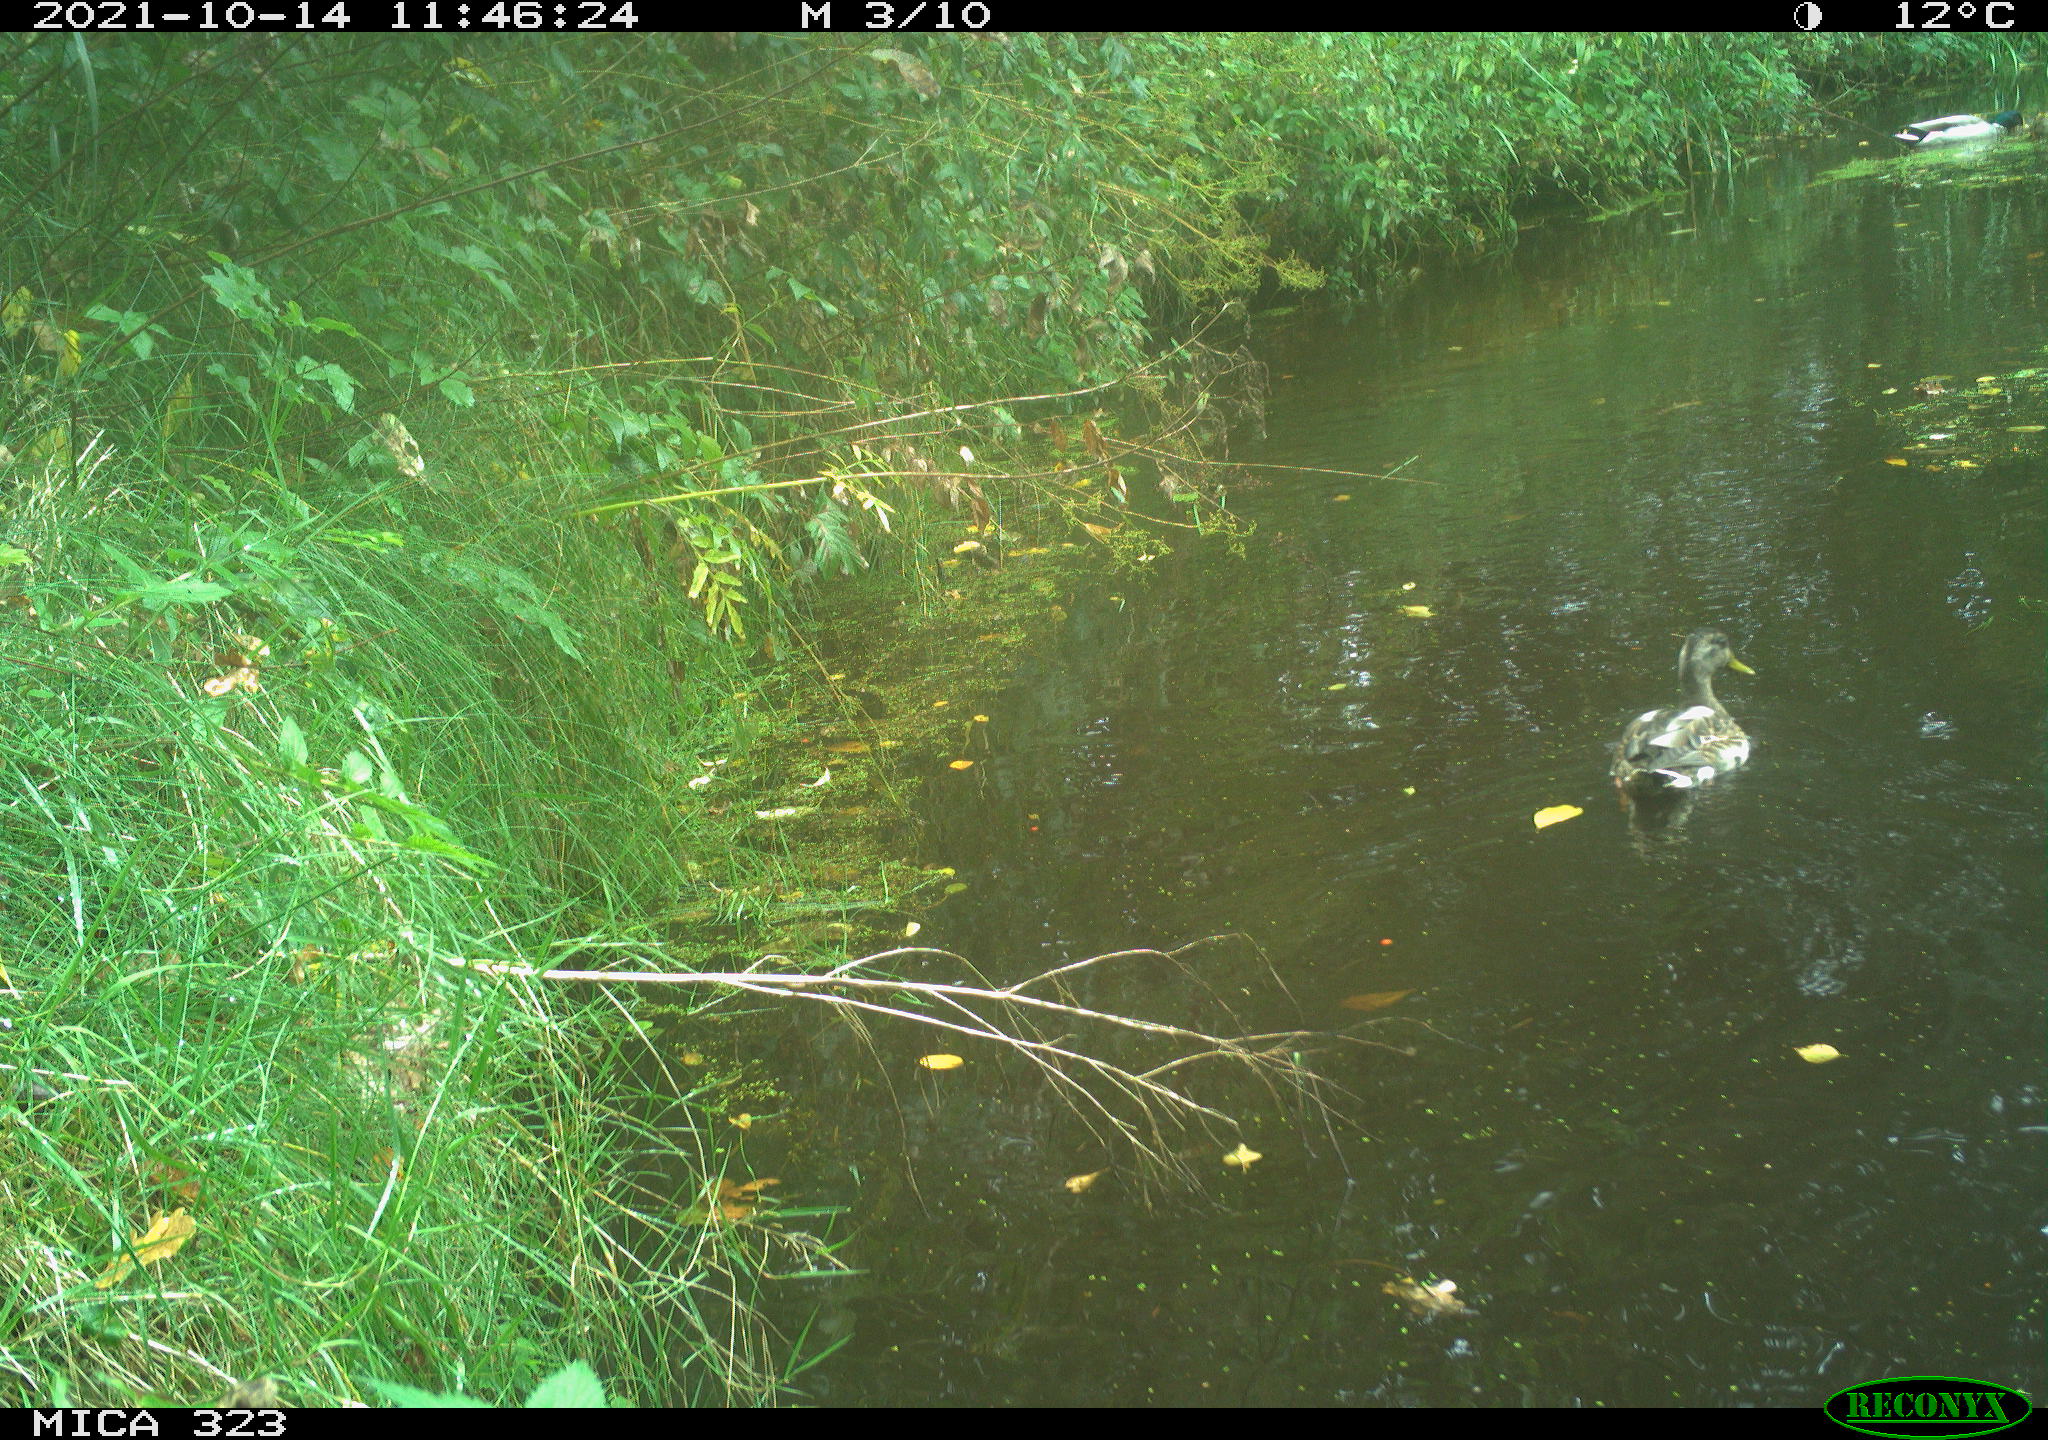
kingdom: Animalia
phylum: Chordata
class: Aves
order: Anseriformes
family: Anatidae
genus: Anas
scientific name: Anas platyrhynchos
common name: Mallard
